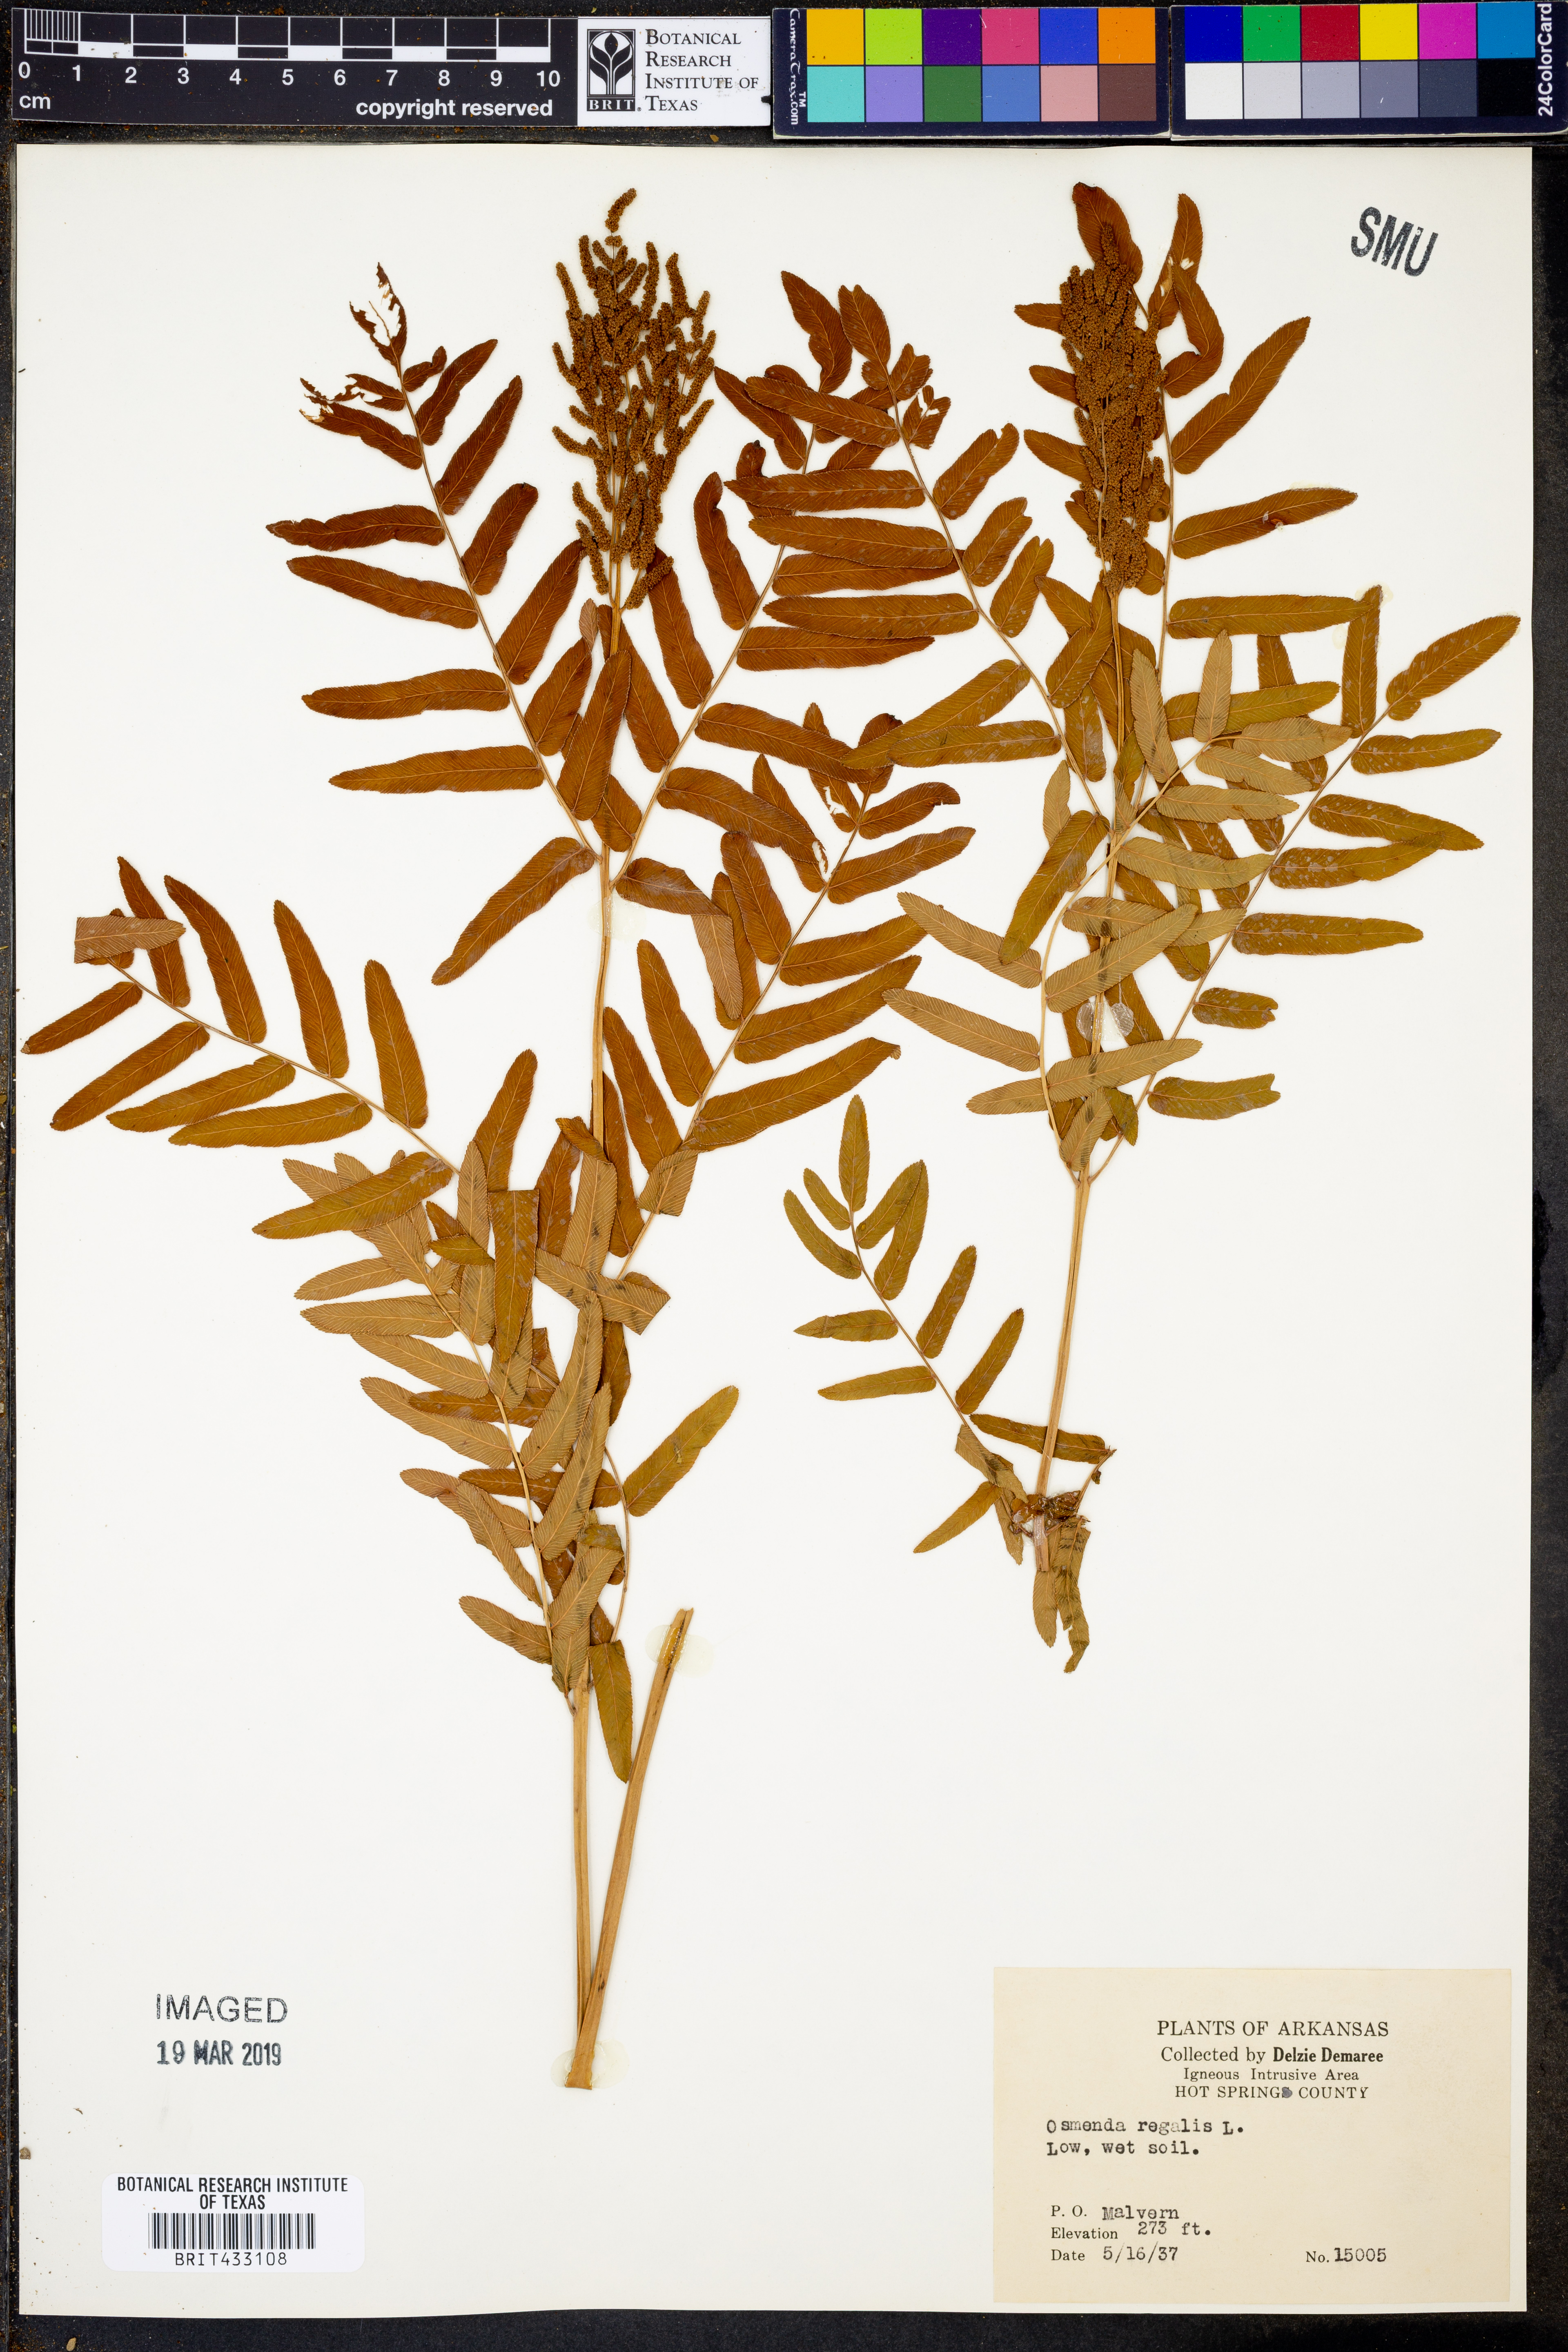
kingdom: Plantae
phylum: Tracheophyta
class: Polypodiopsida
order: Osmundales
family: Osmundaceae
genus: Osmunda
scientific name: Osmunda regalis
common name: Royal fern
